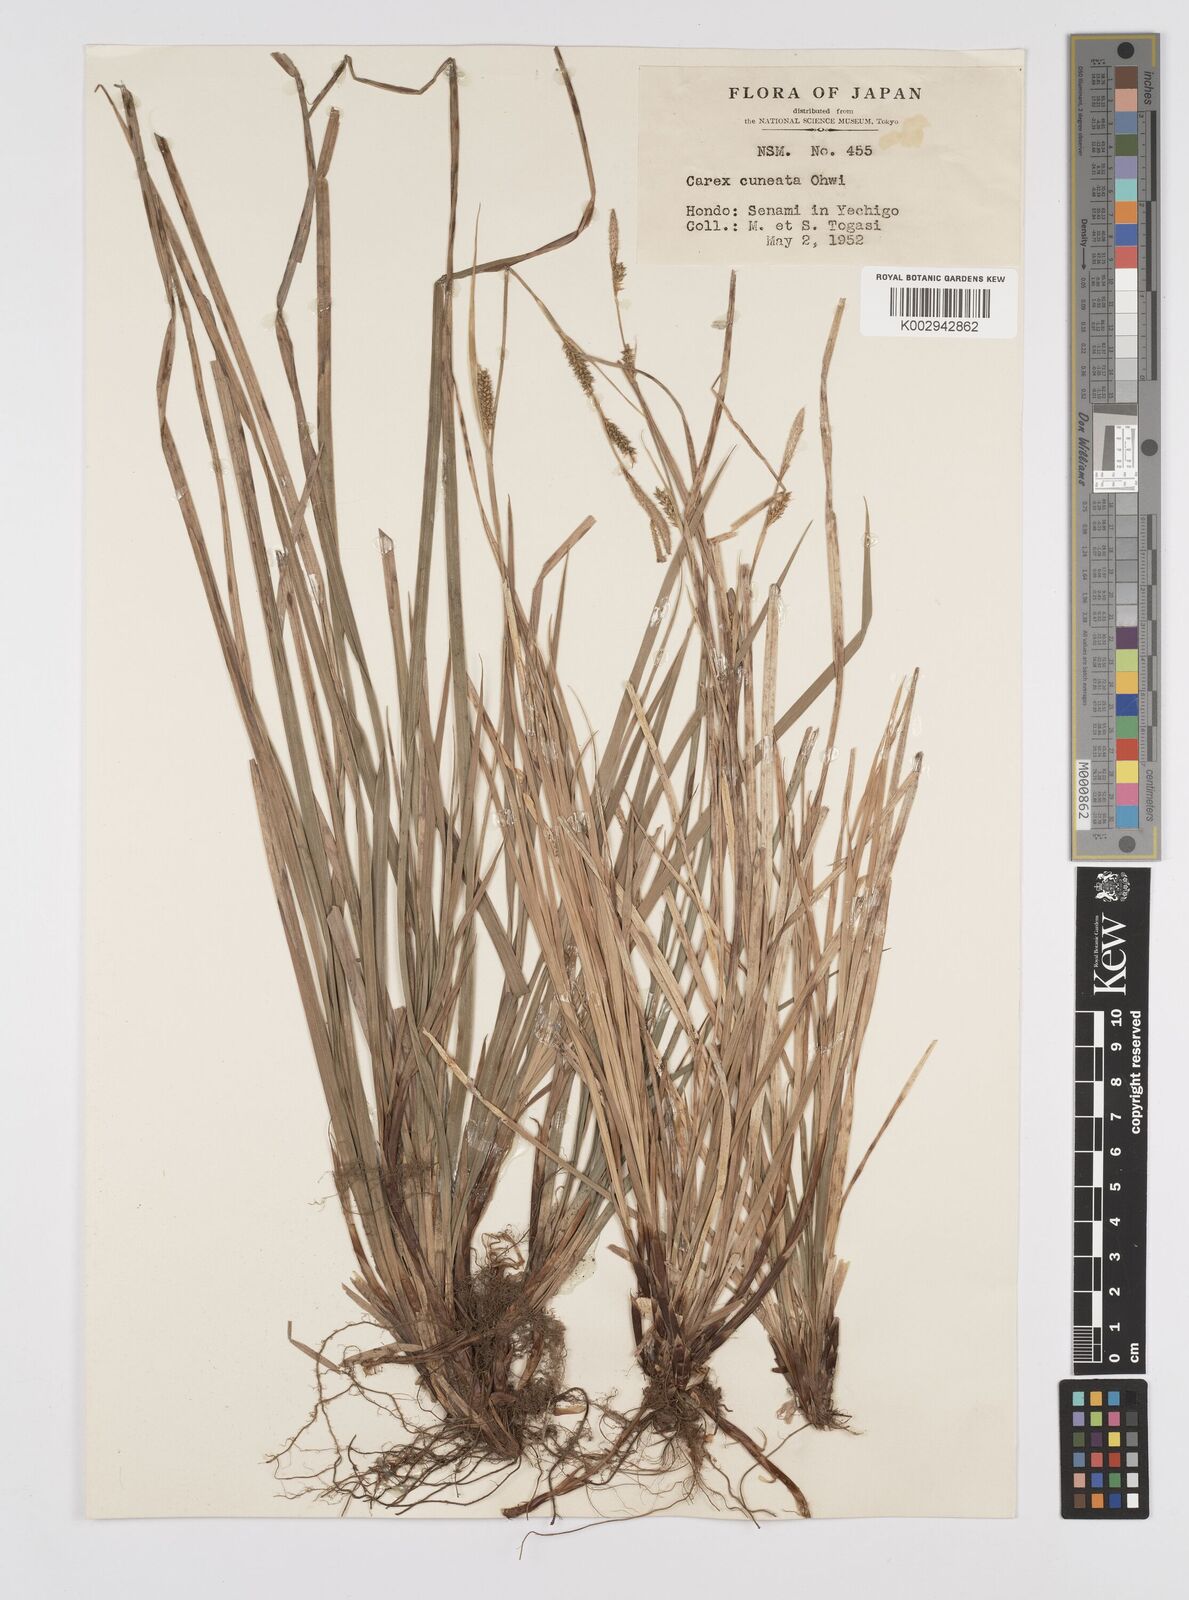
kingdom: Plantae
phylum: Tracheophyta
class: Liliopsida
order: Poales
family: Cyperaceae
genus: Carex
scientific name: Carex stenostachys
